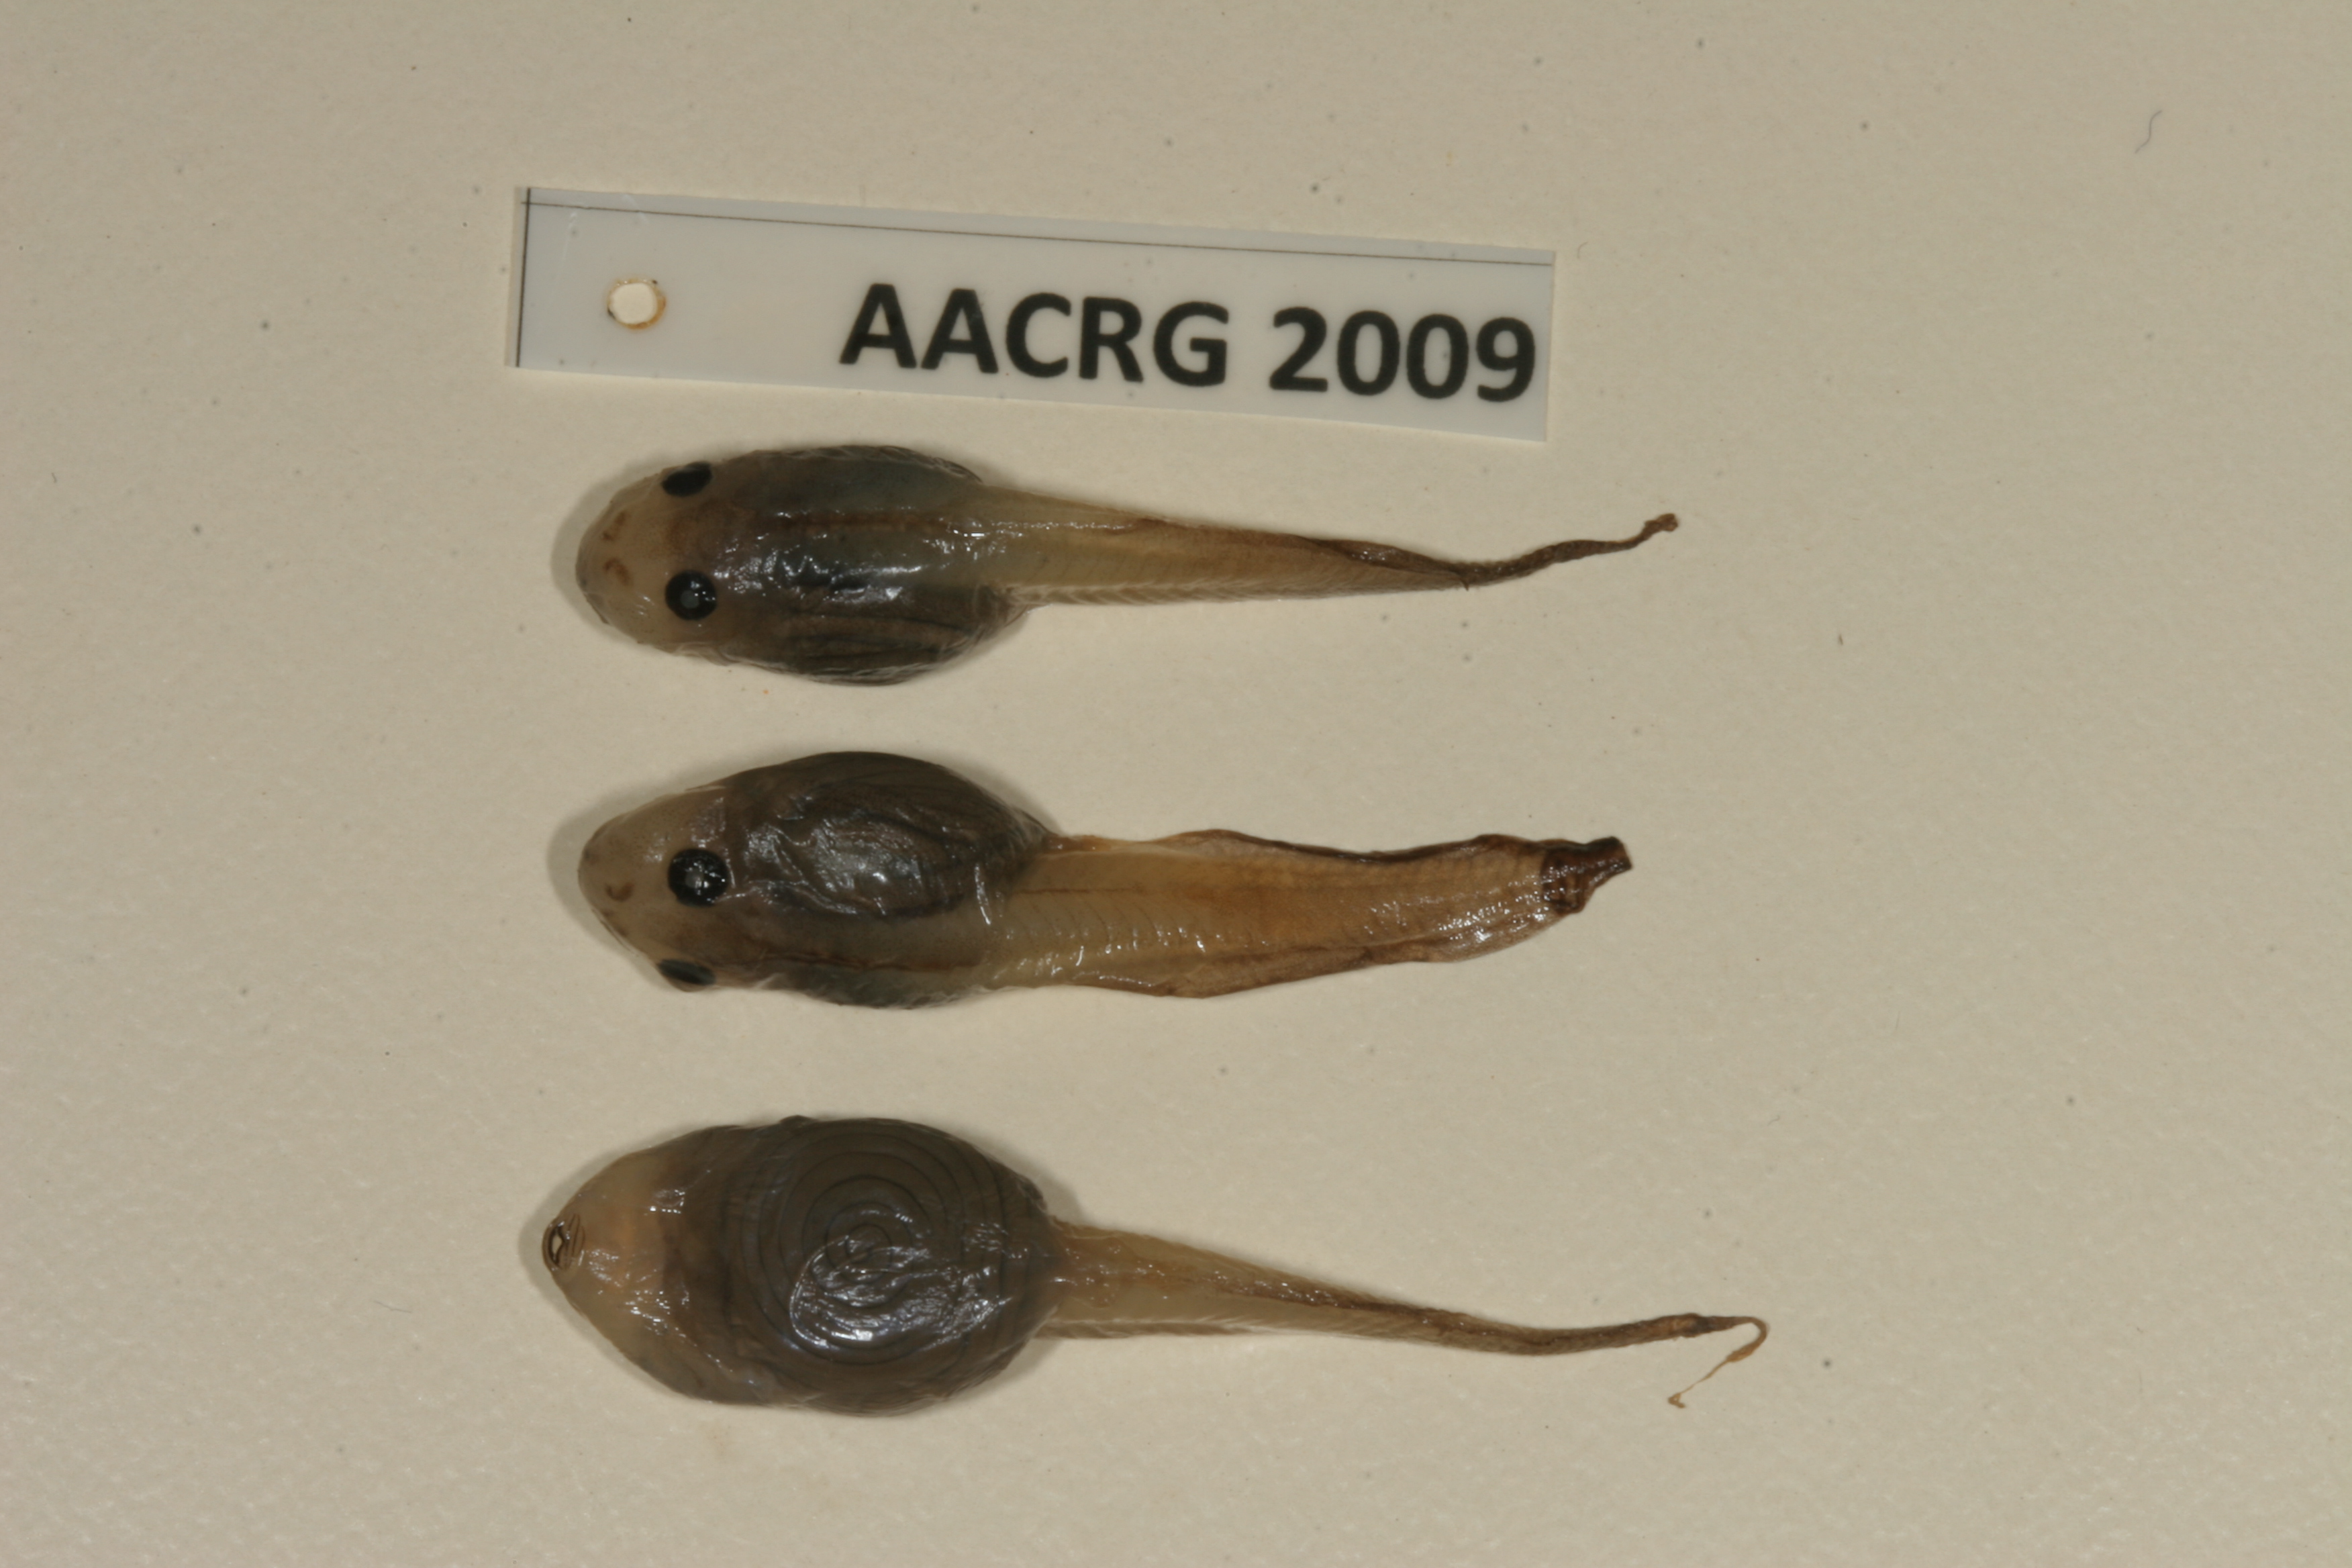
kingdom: Animalia
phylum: Chordata
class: Amphibia
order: Anura
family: Bufonidae
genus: Sclerophrys
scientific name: Sclerophrys garmani
